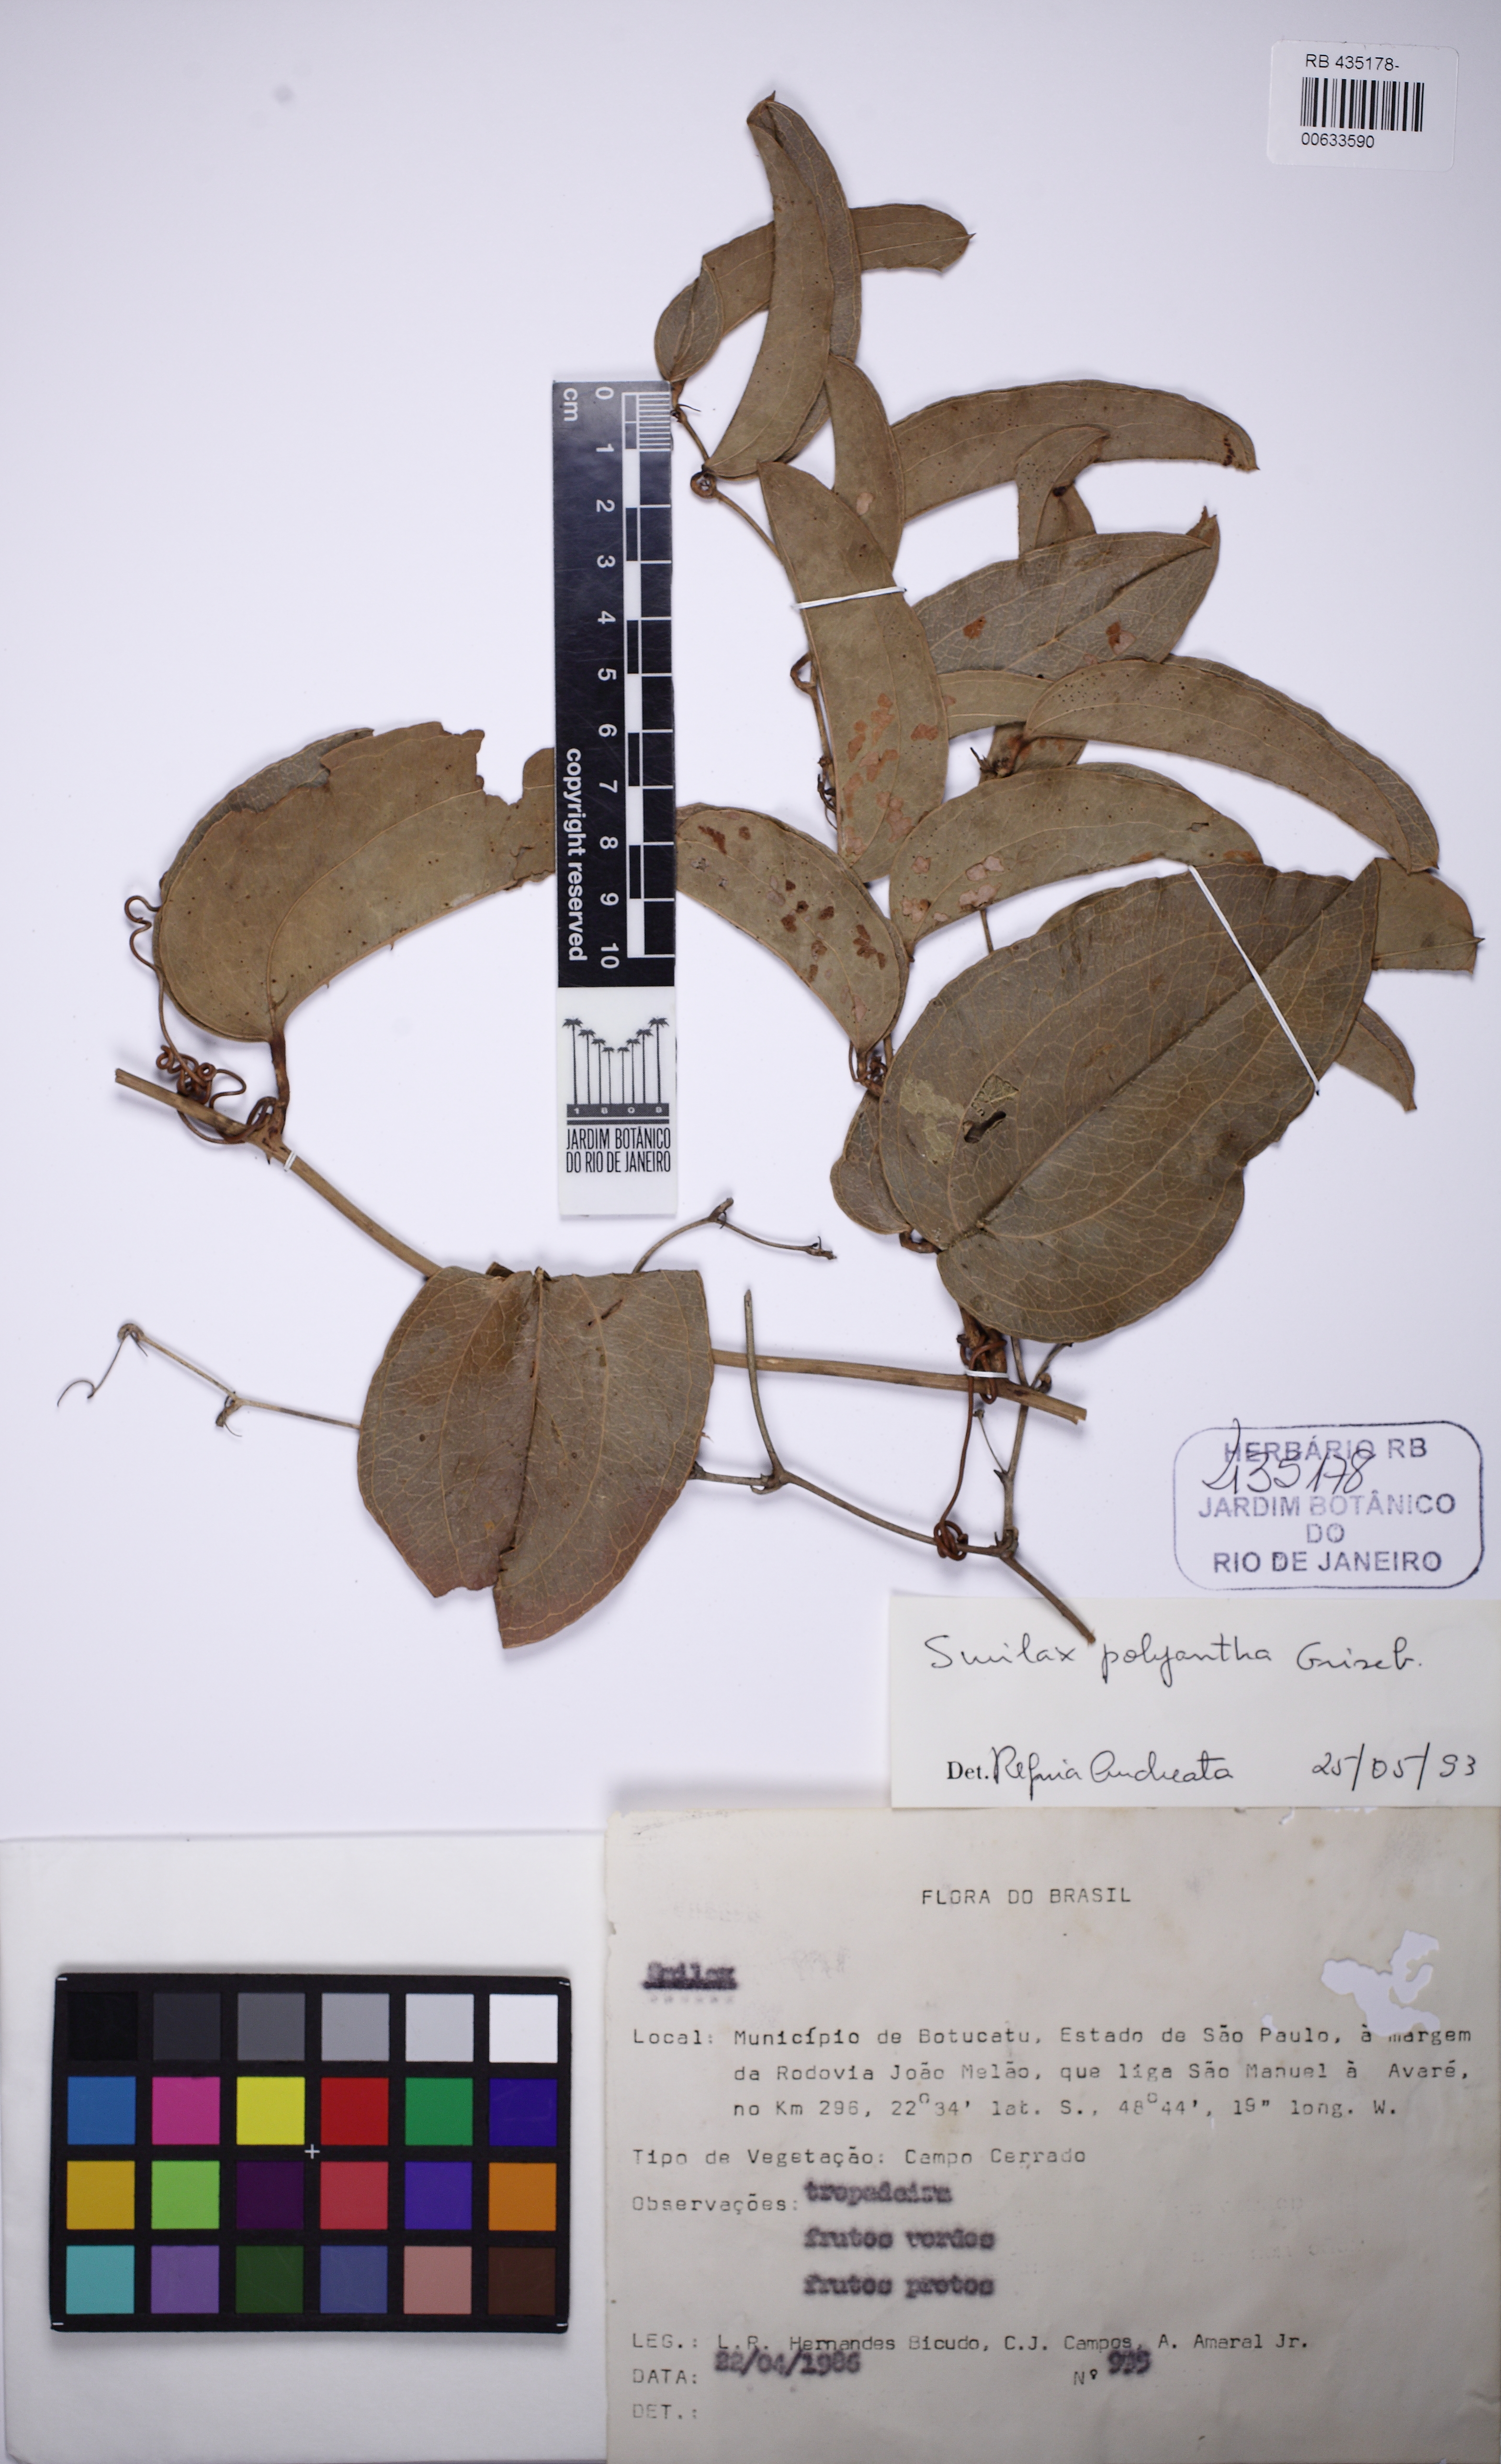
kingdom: Plantae
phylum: Tracheophyta
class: Liliopsida
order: Liliales
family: Smilacaceae
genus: Smilax
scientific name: Smilax polyantha
